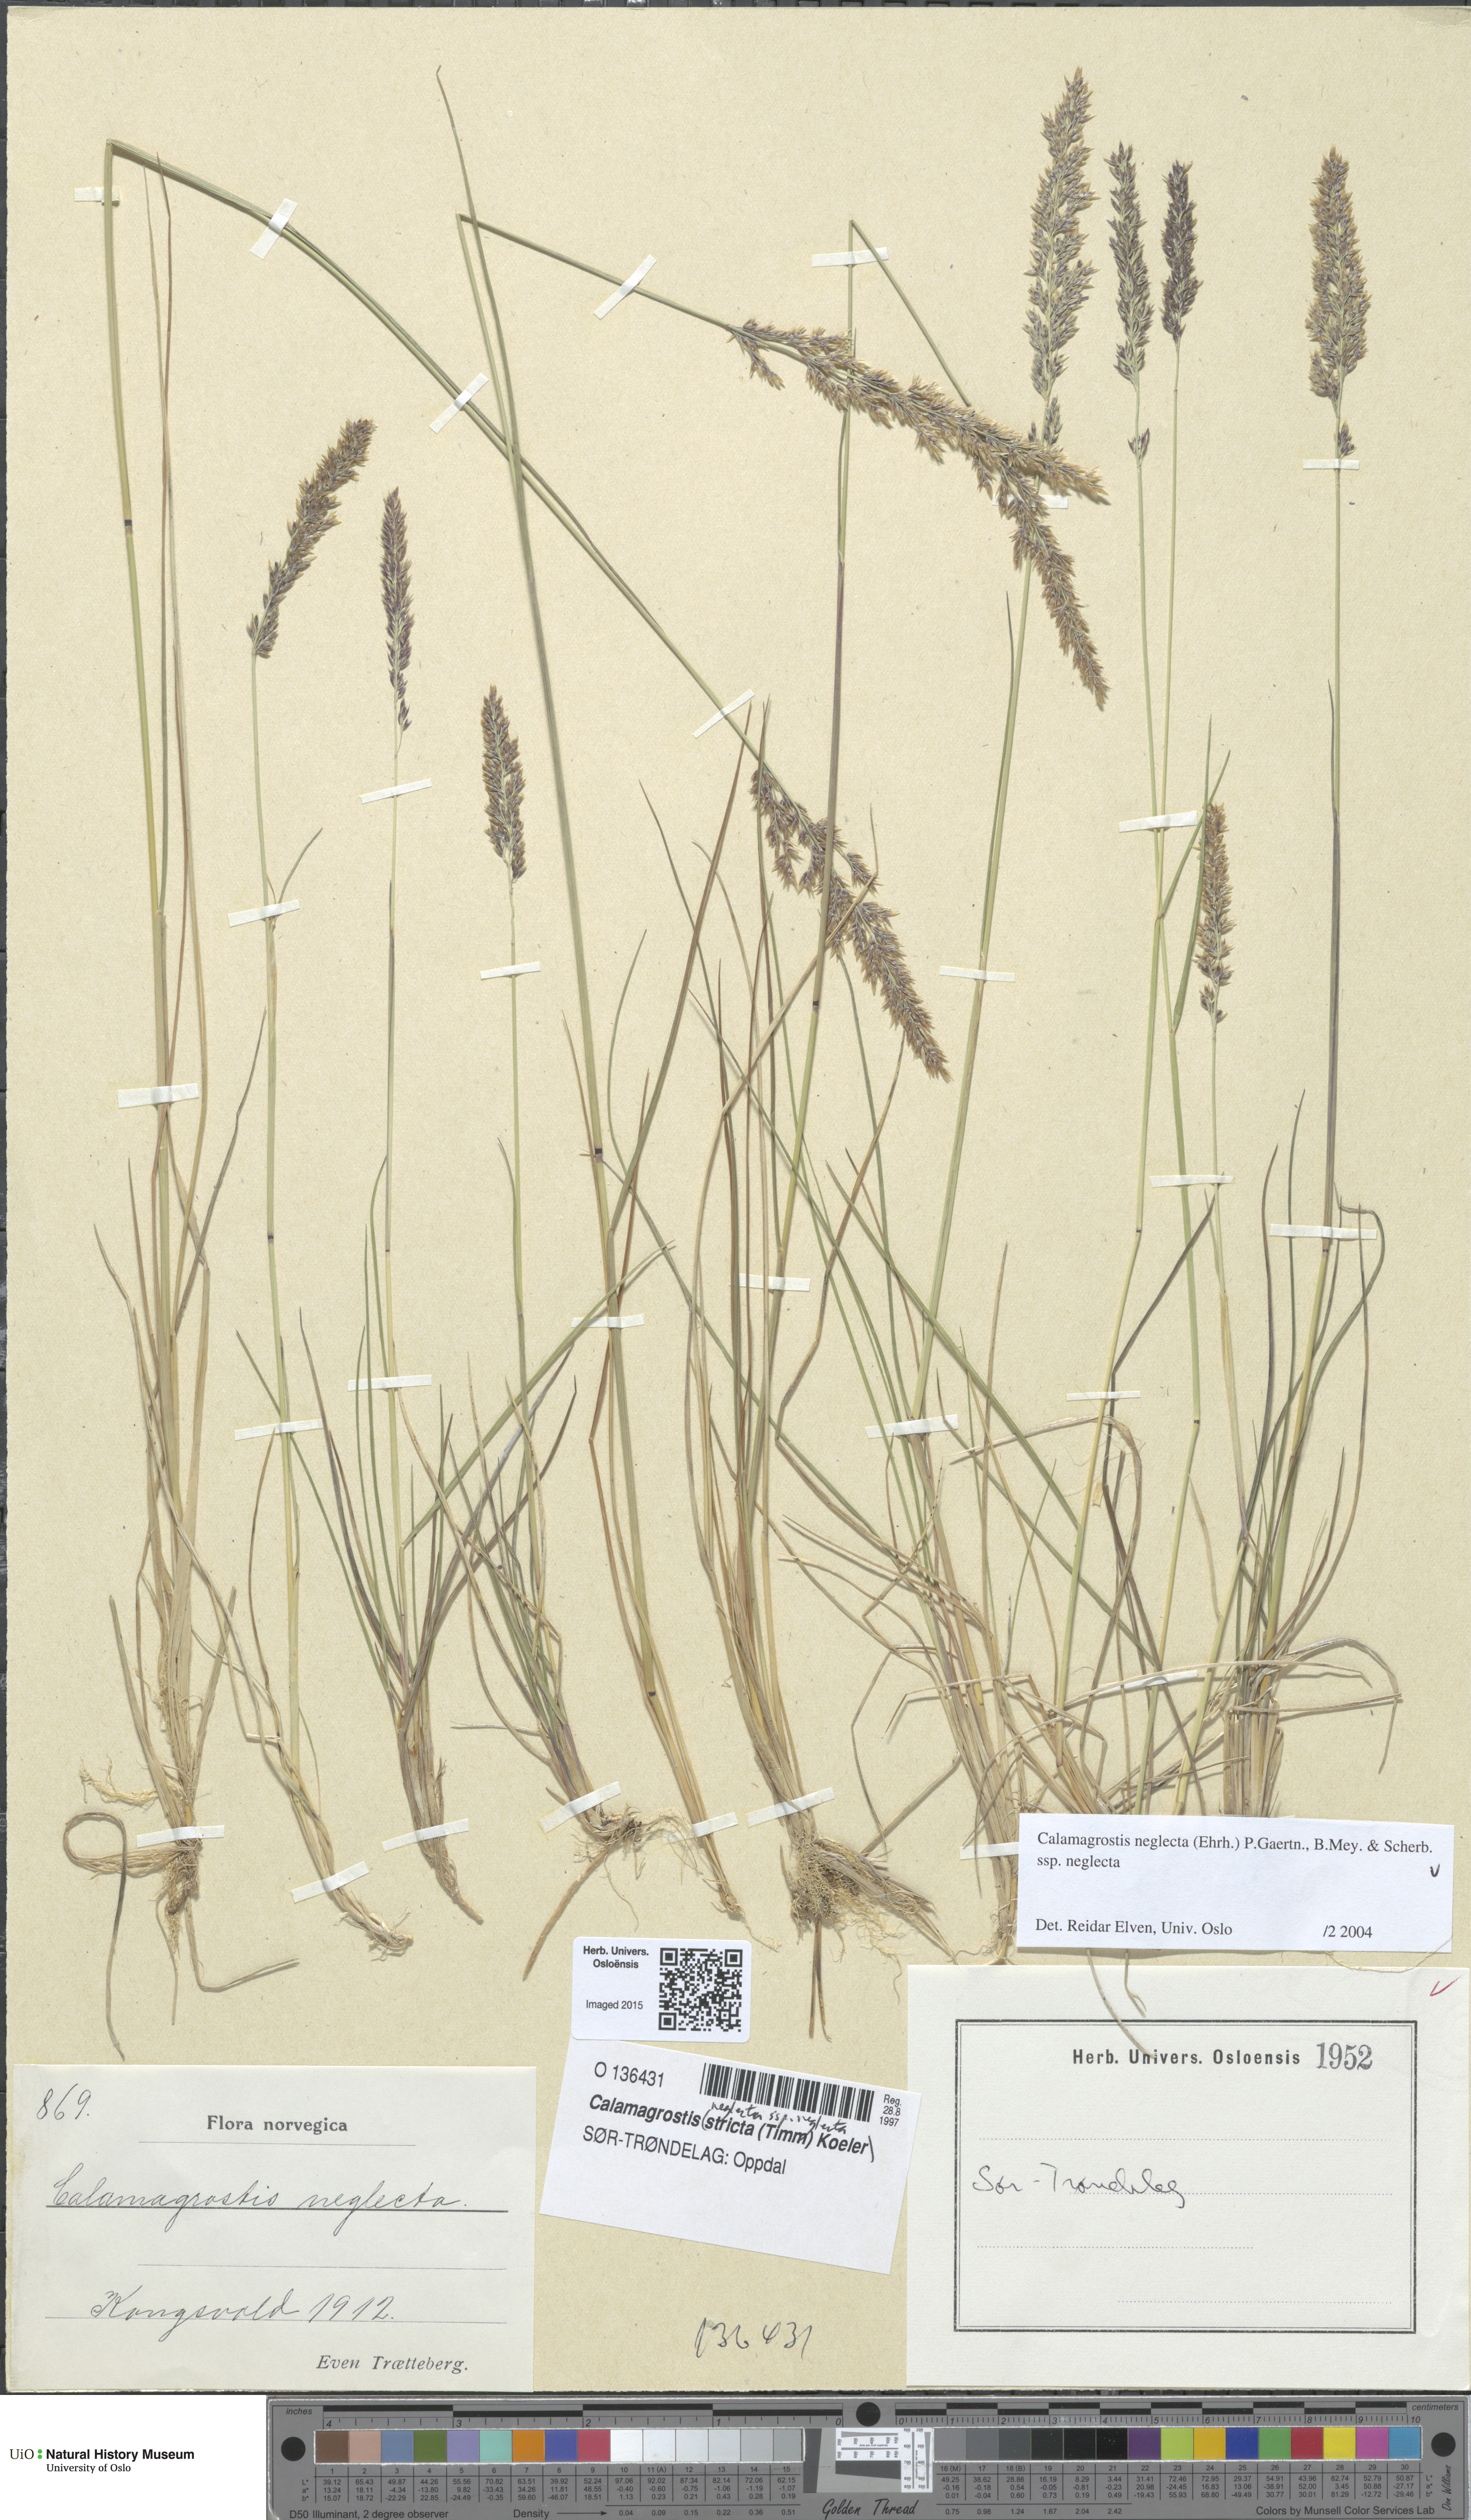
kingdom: Plantae
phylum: Tracheophyta
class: Liliopsida
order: Poales
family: Poaceae
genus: Achnatherum
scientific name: Achnatherum calamagrostis
